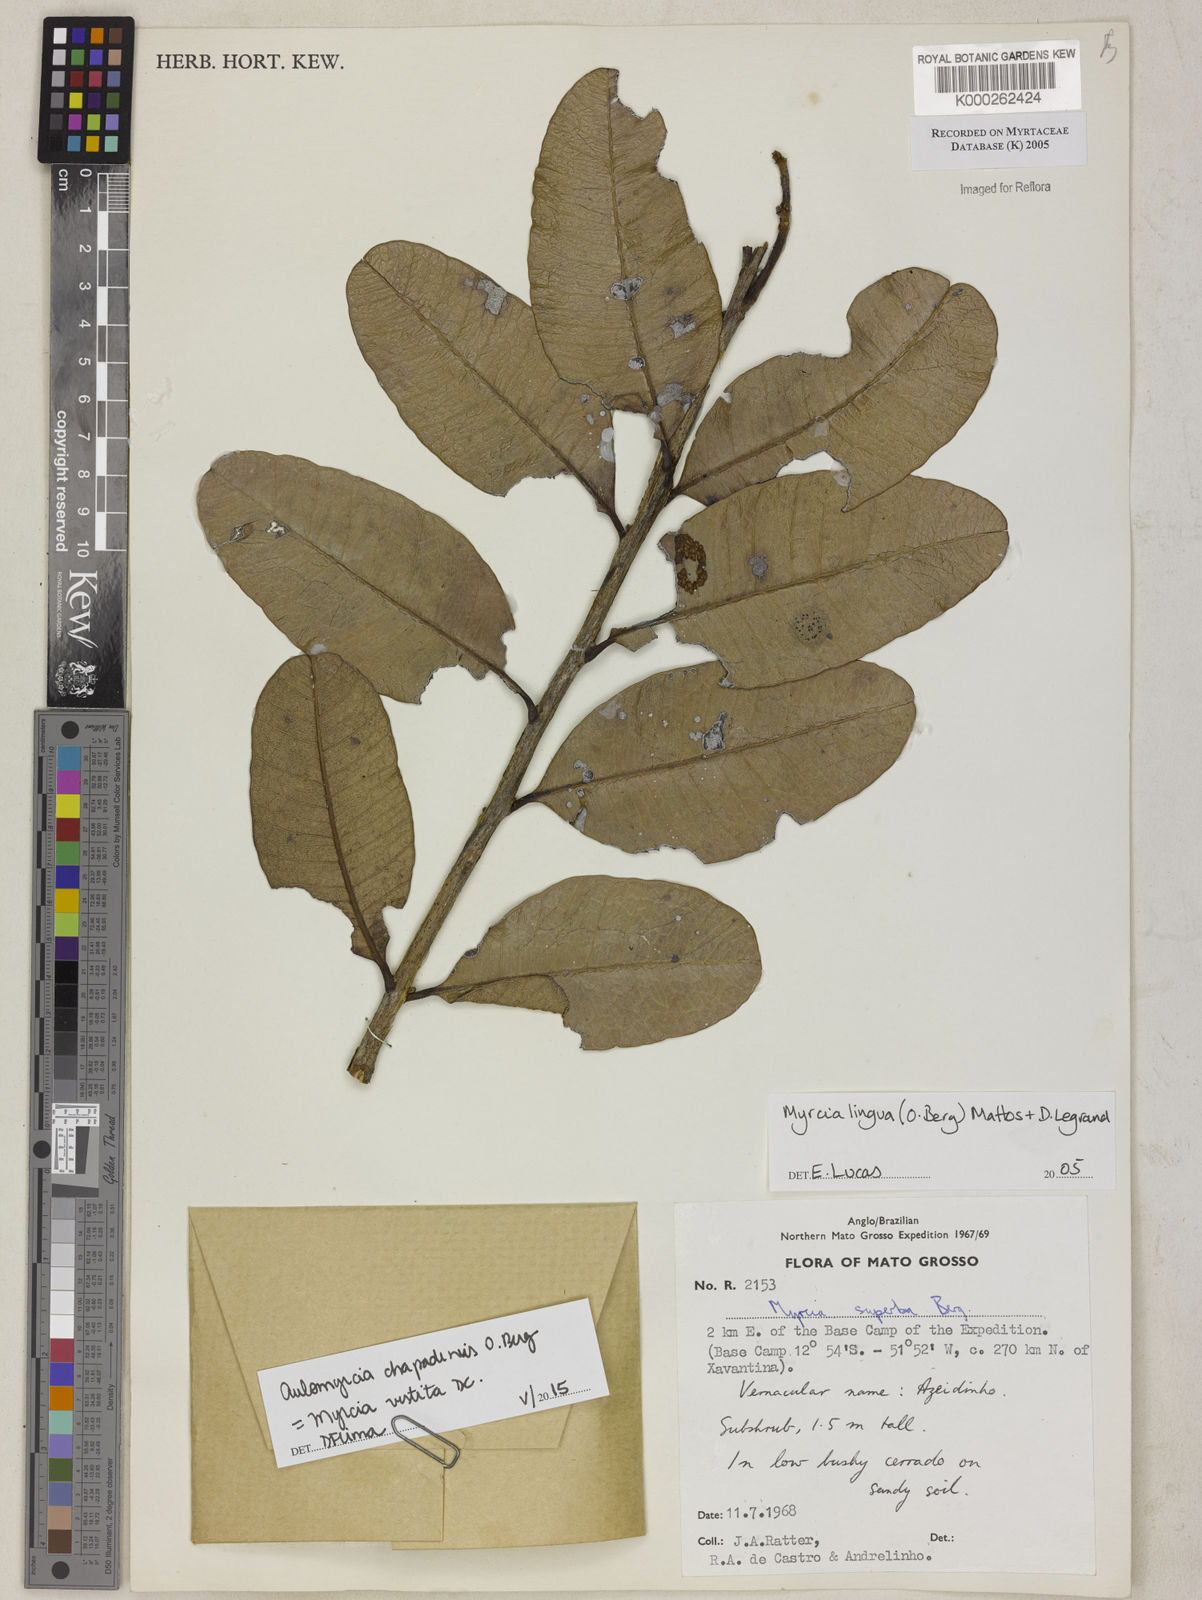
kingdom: Plantae
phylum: Tracheophyta
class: Magnoliopsida
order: Myrtales
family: Myrtaceae
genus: Myrcia
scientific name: Myrcia guianensis
